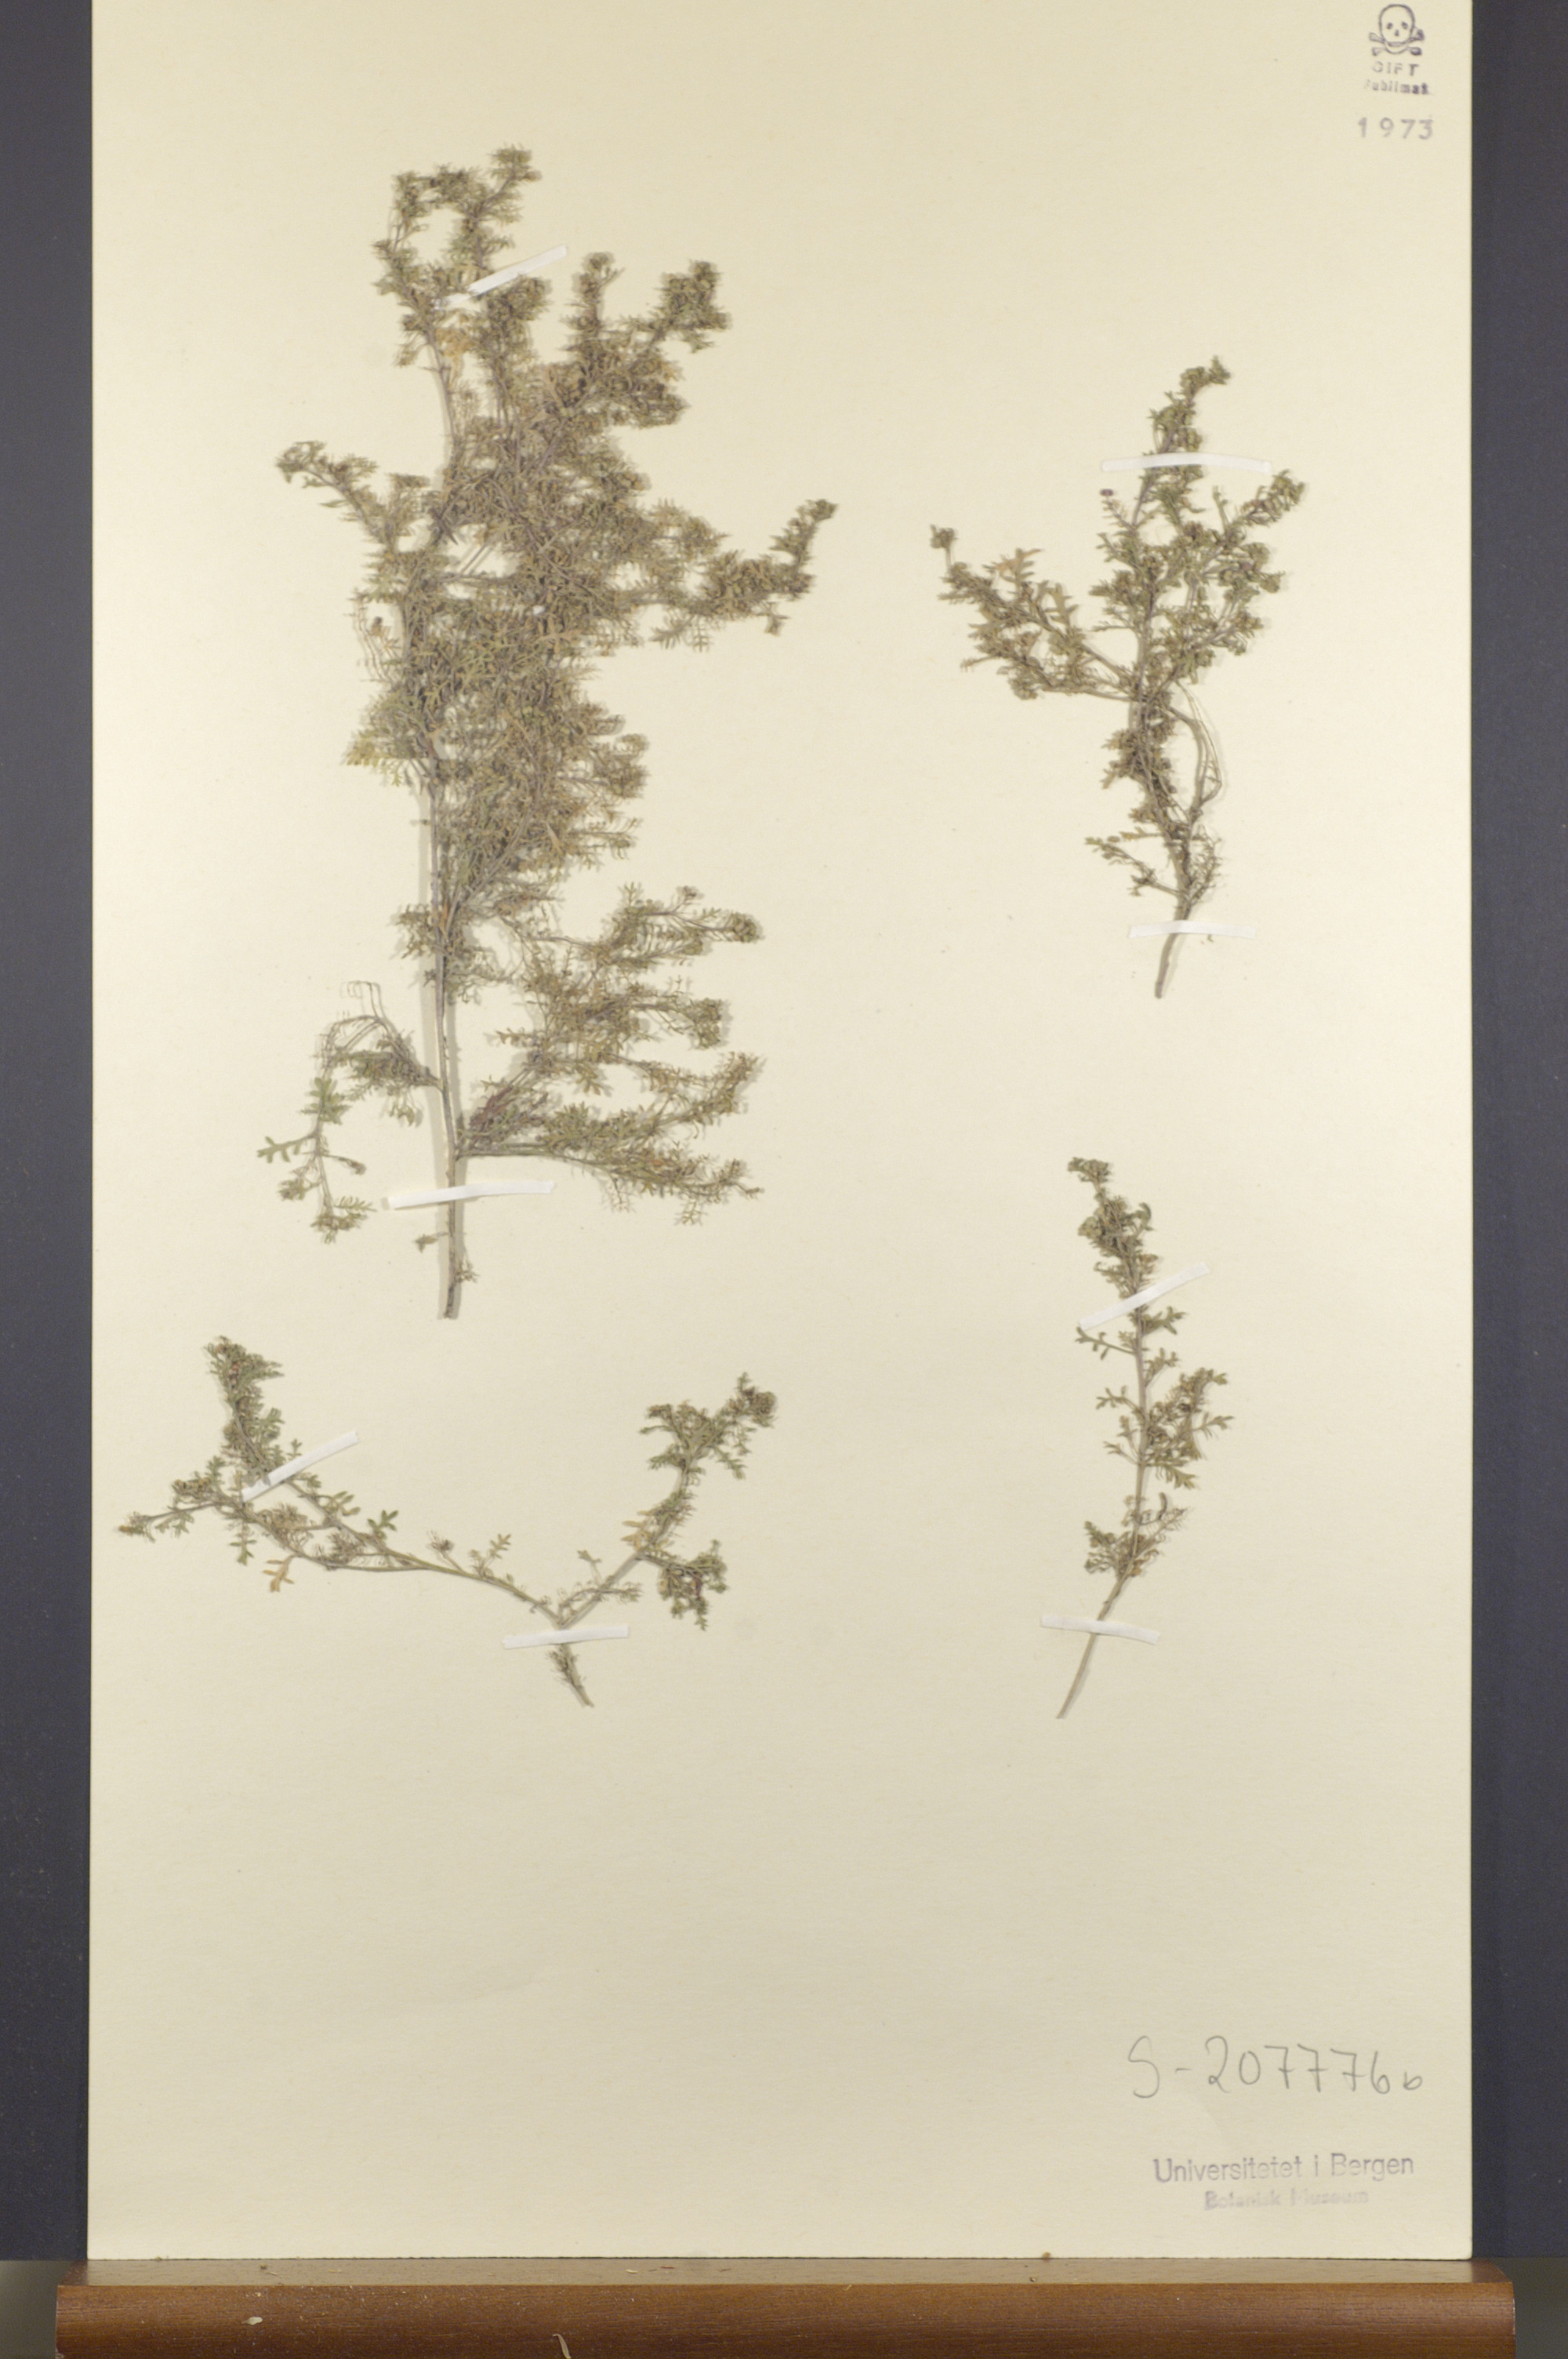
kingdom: Plantae
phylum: Tracheophyta
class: Magnoliopsida
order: Brassicales
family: Brassicaceae
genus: Lepidium
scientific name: Lepidium didymum
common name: Lesser swinecress
